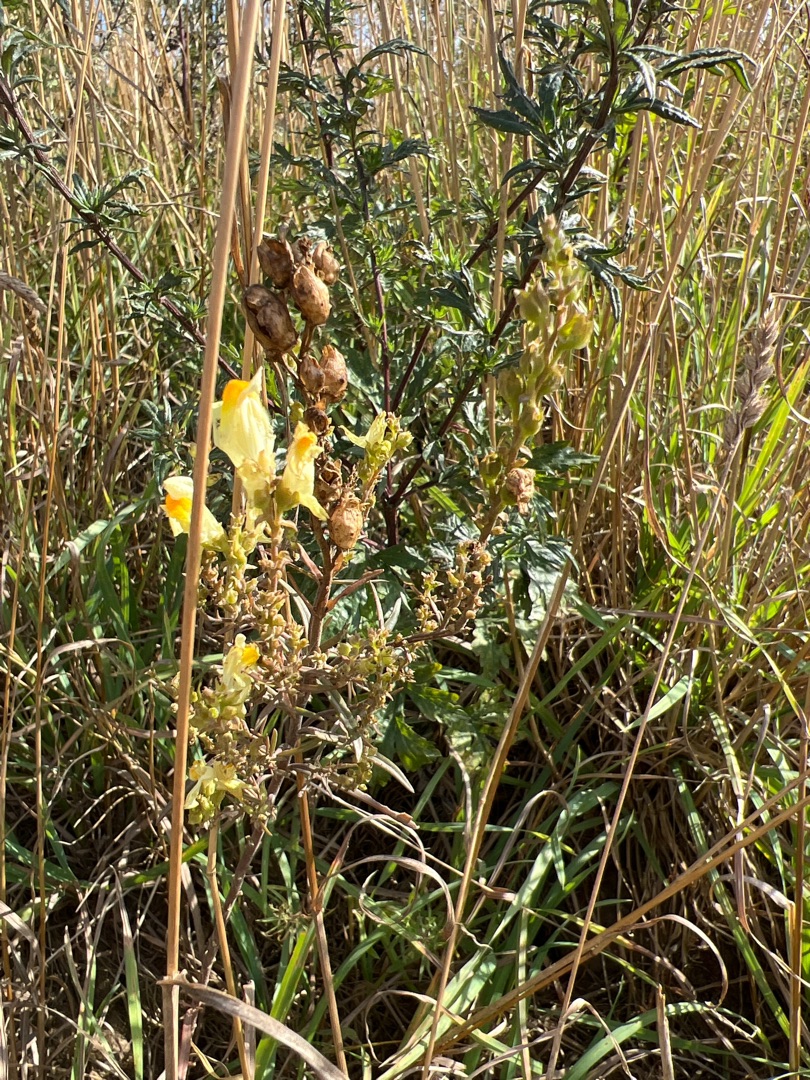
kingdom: Plantae
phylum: Tracheophyta
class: Magnoliopsida
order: Lamiales
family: Plantaginaceae
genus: Linaria
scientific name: Linaria vulgaris
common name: Almindelig torskemund
